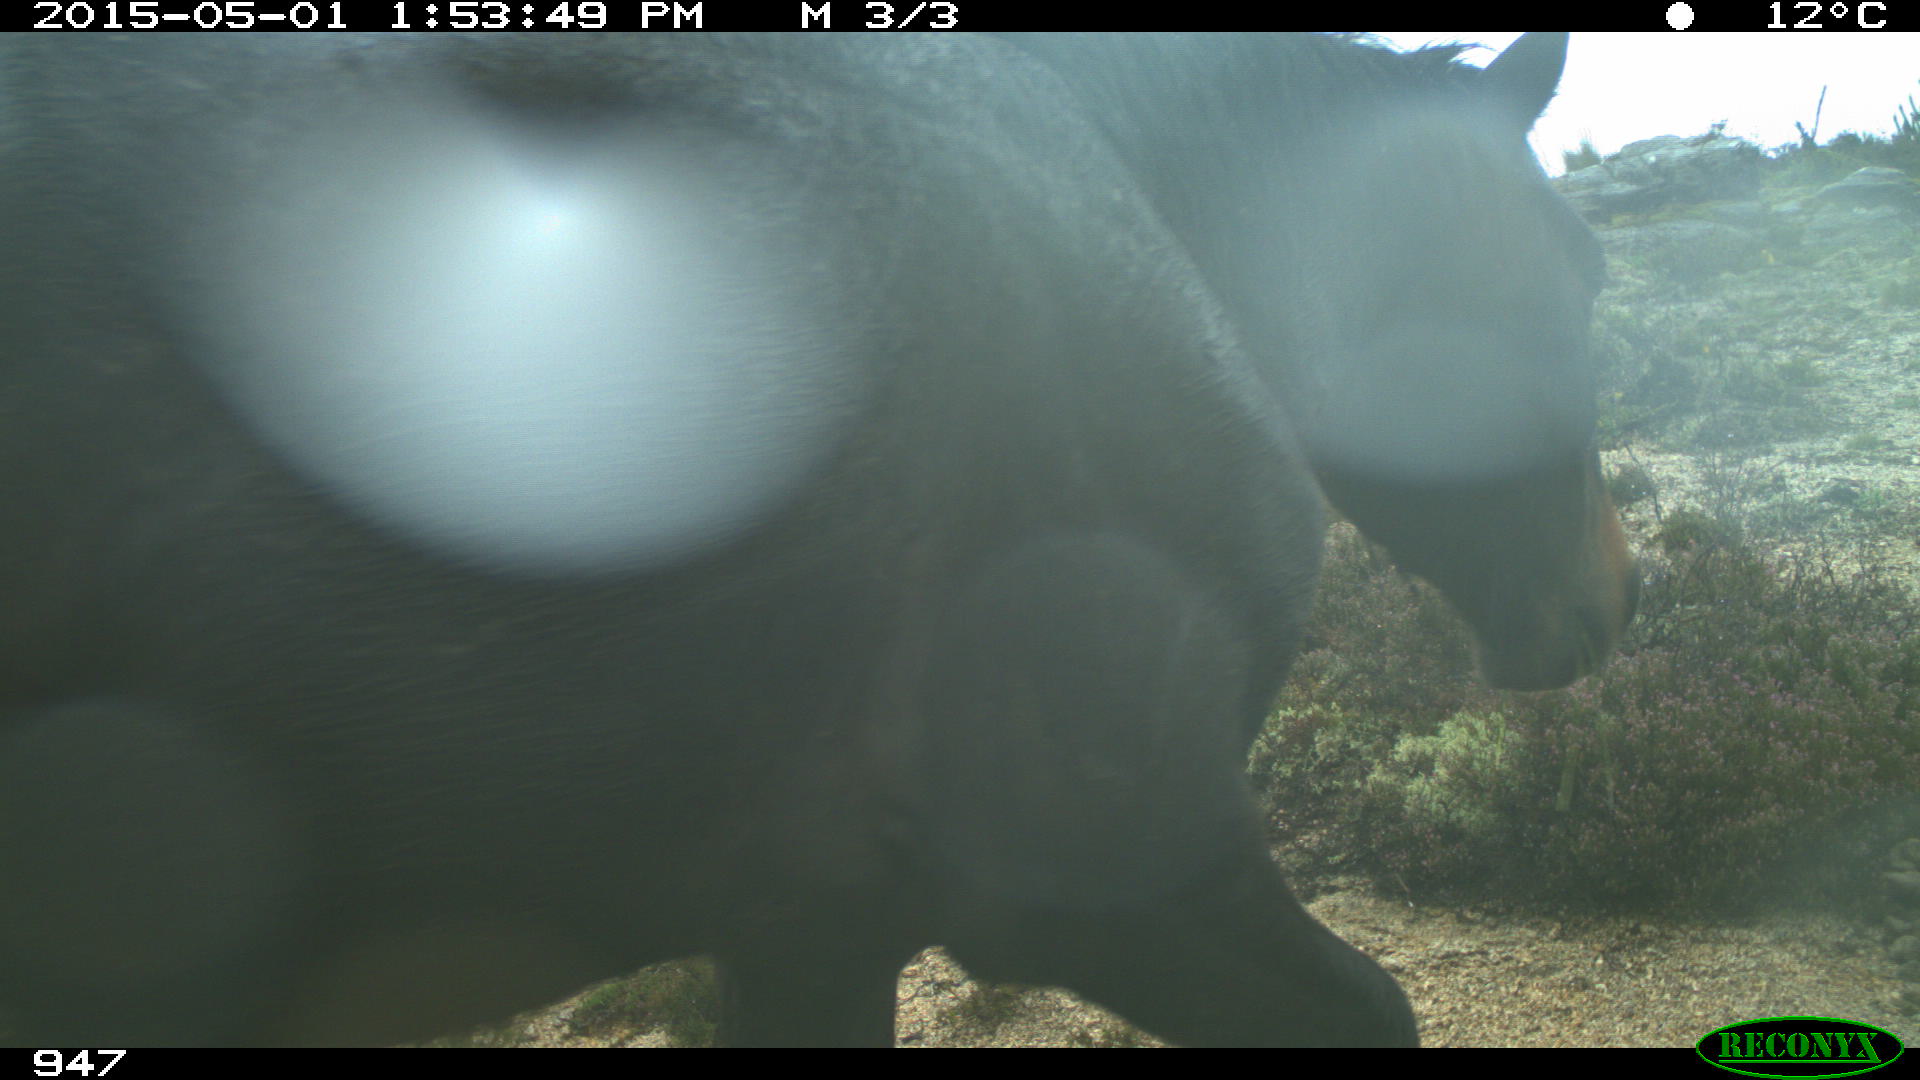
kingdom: Animalia
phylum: Chordata
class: Mammalia
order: Perissodactyla
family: Equidae
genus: Equus
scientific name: Equus caballus
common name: Horse
